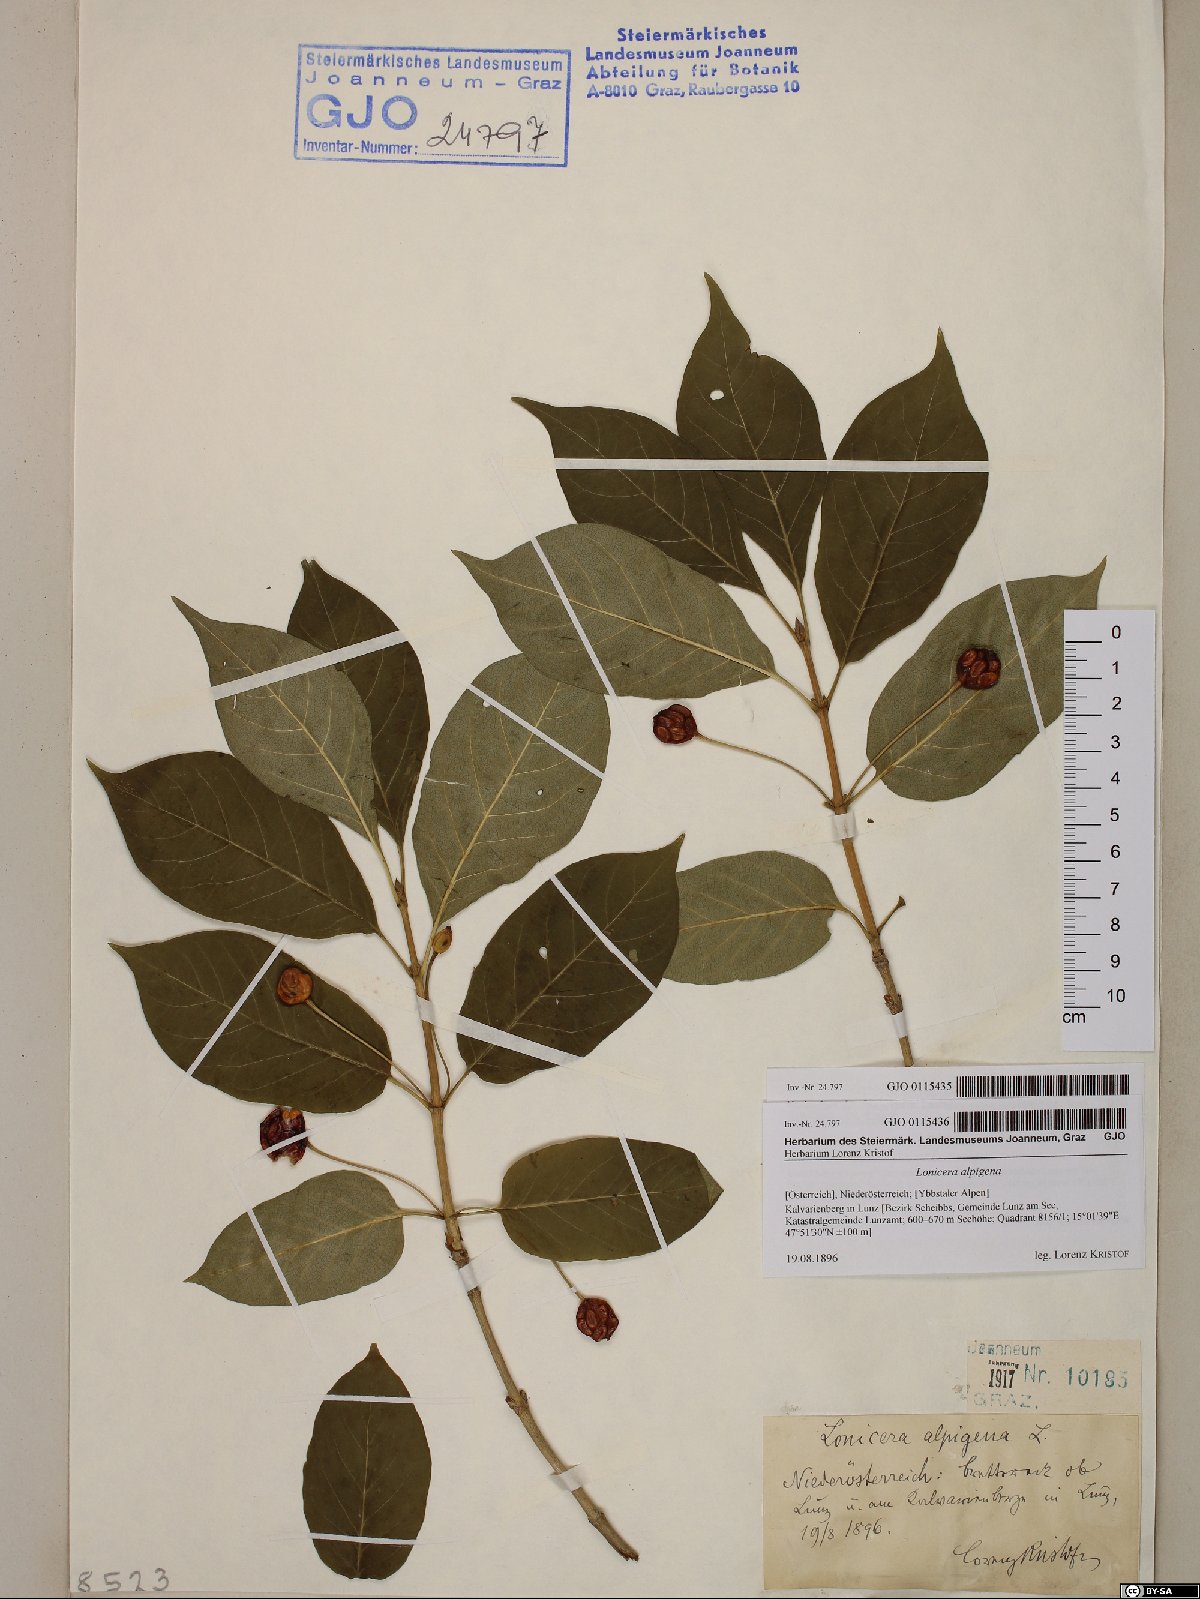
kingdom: Plantae
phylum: Tracheophyta
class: Magnoliopsida
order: Dipsacales
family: Caprifoliaceae
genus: Lonicera
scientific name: Lonicera alpigena
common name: Alpine honeysuckle
